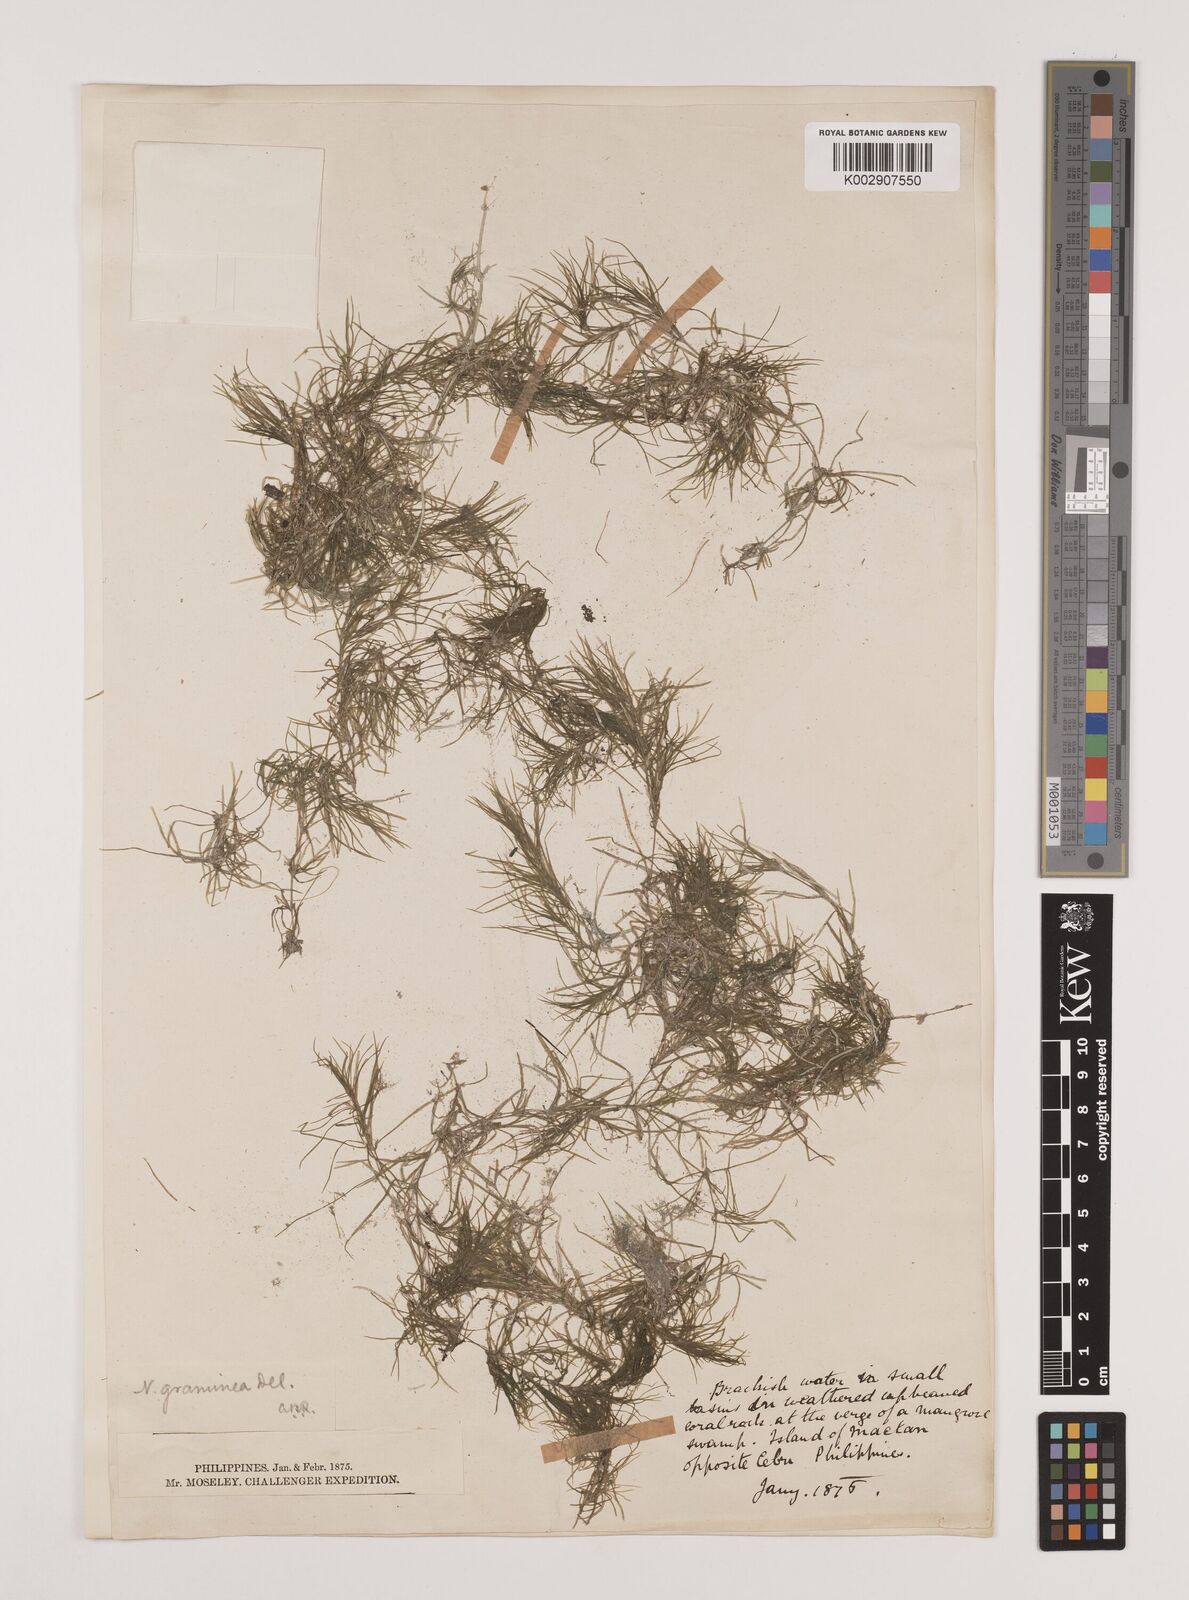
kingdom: Plantae
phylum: Tracheophyta
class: Liliopsida
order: Alismatales
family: Hydrocharitaceae
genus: Najas
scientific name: Najas graminea
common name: Ricefield waternymph
